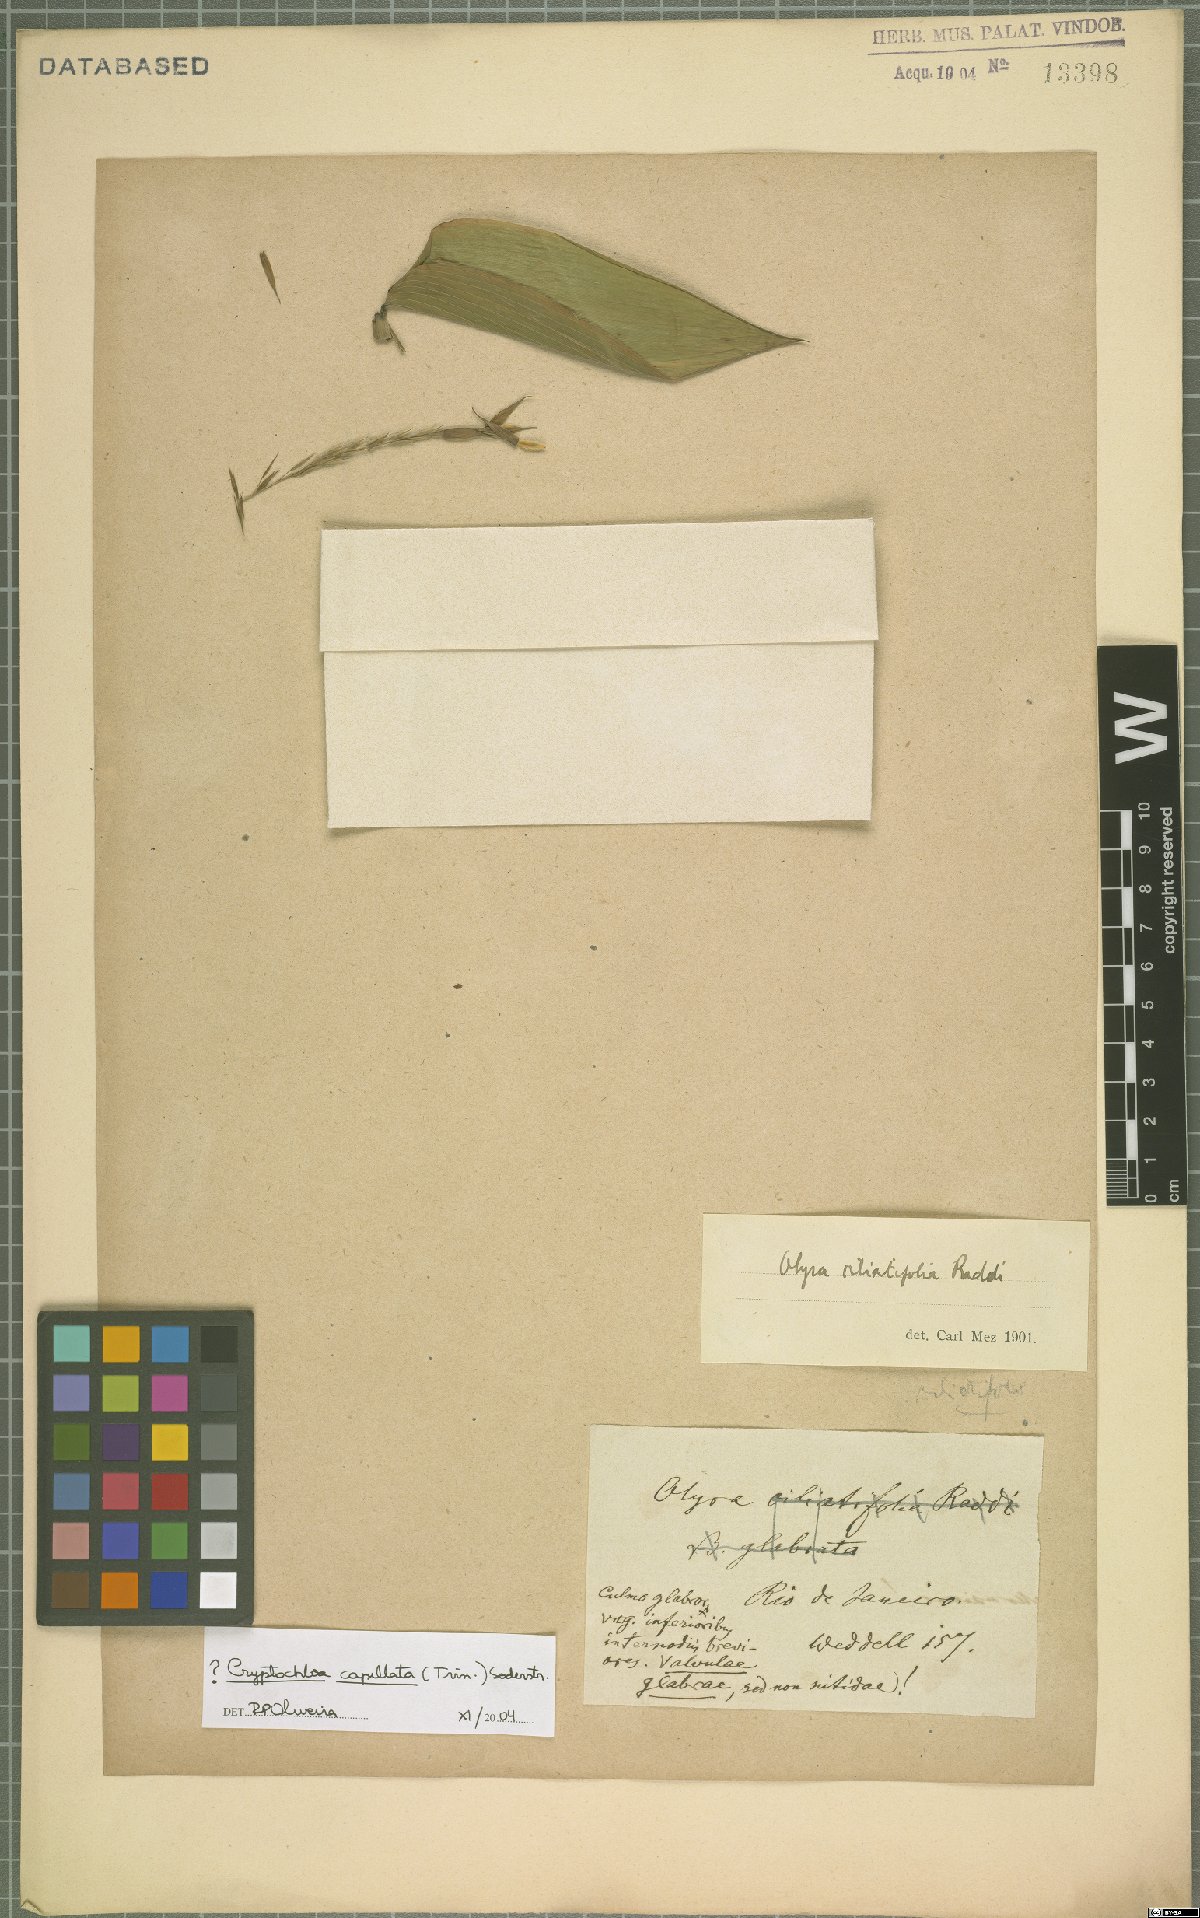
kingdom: Plantae
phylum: Tracheophyta
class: Liliopsida
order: Poales
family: Poaceae
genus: Cryptochloa
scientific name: Cryptochloa capillata
